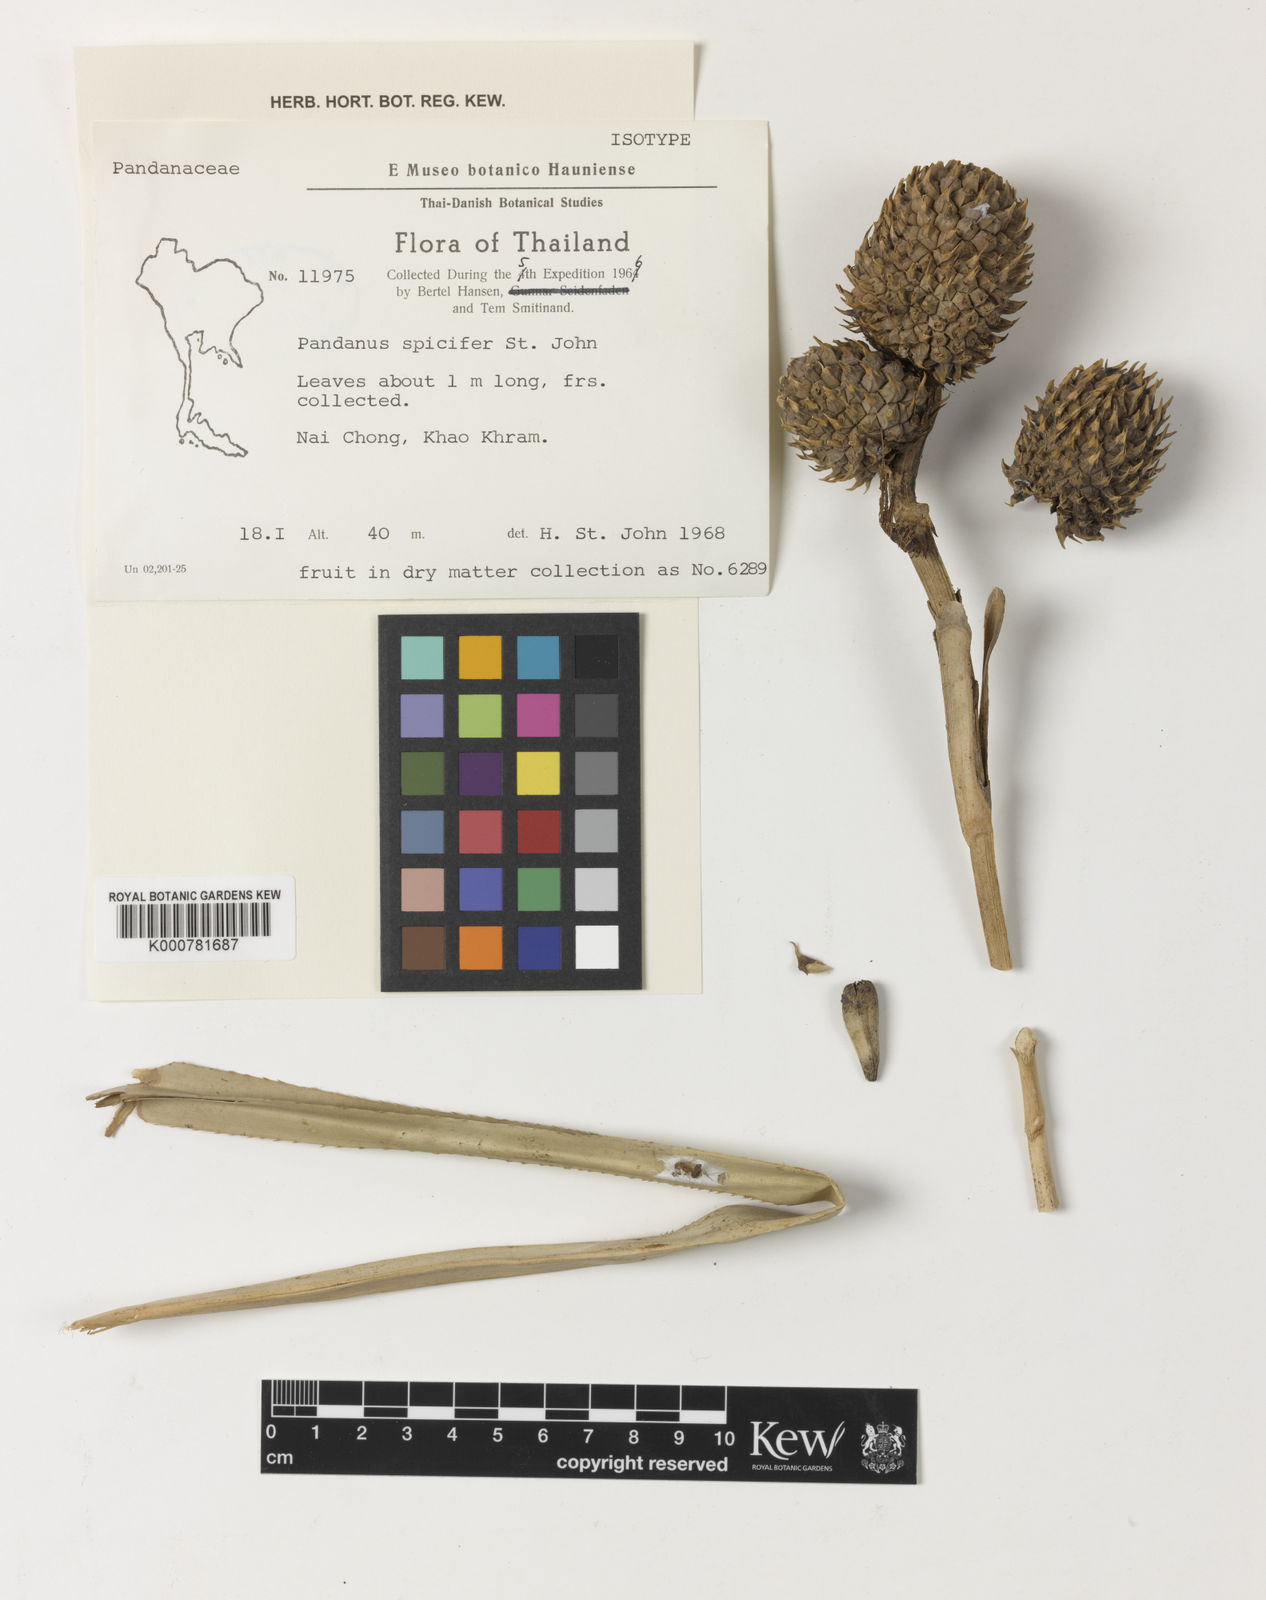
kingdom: Plantae
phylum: Tracheophyta
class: Liliopsida
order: Pandanales
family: Pandanaceae
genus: Benstonea
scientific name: Benstonea humilis
